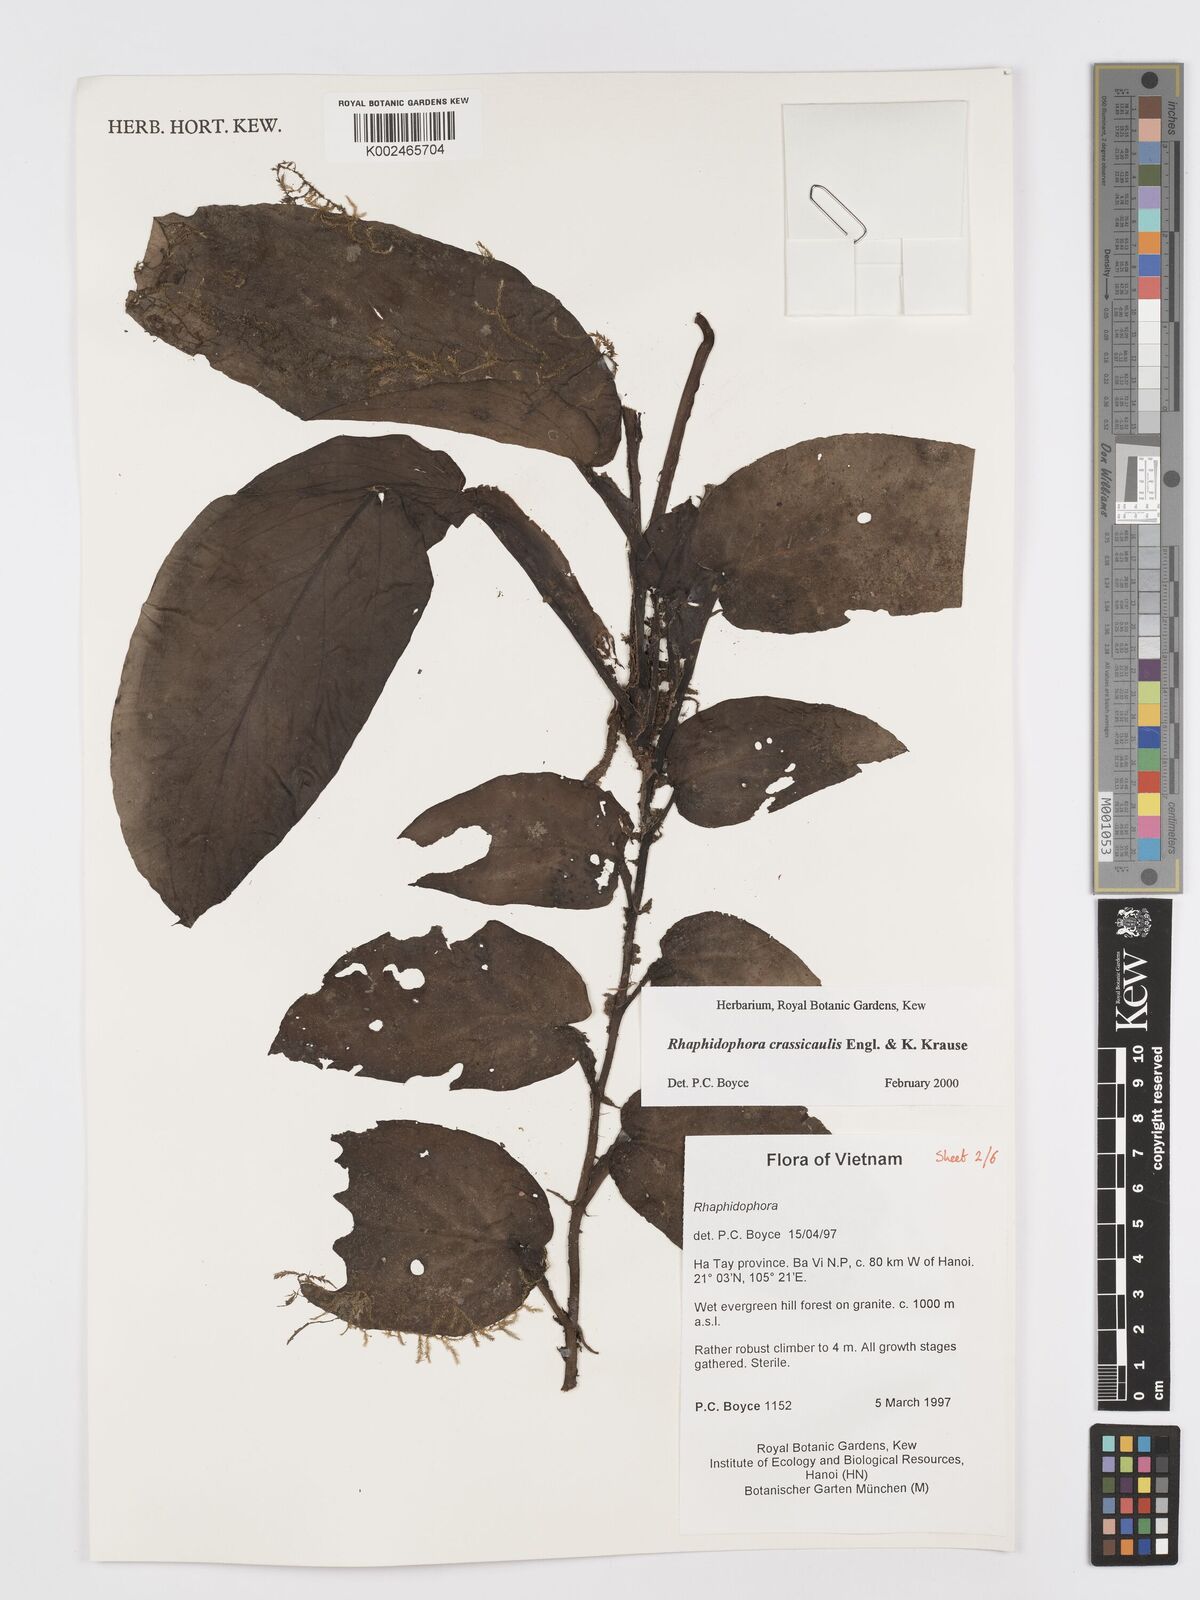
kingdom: Plantae
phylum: Tracheophyta
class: Liliopsida
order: Alismatales
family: Araceae
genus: Rhaphidophora
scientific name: Rhaphidophora crassicaulis
